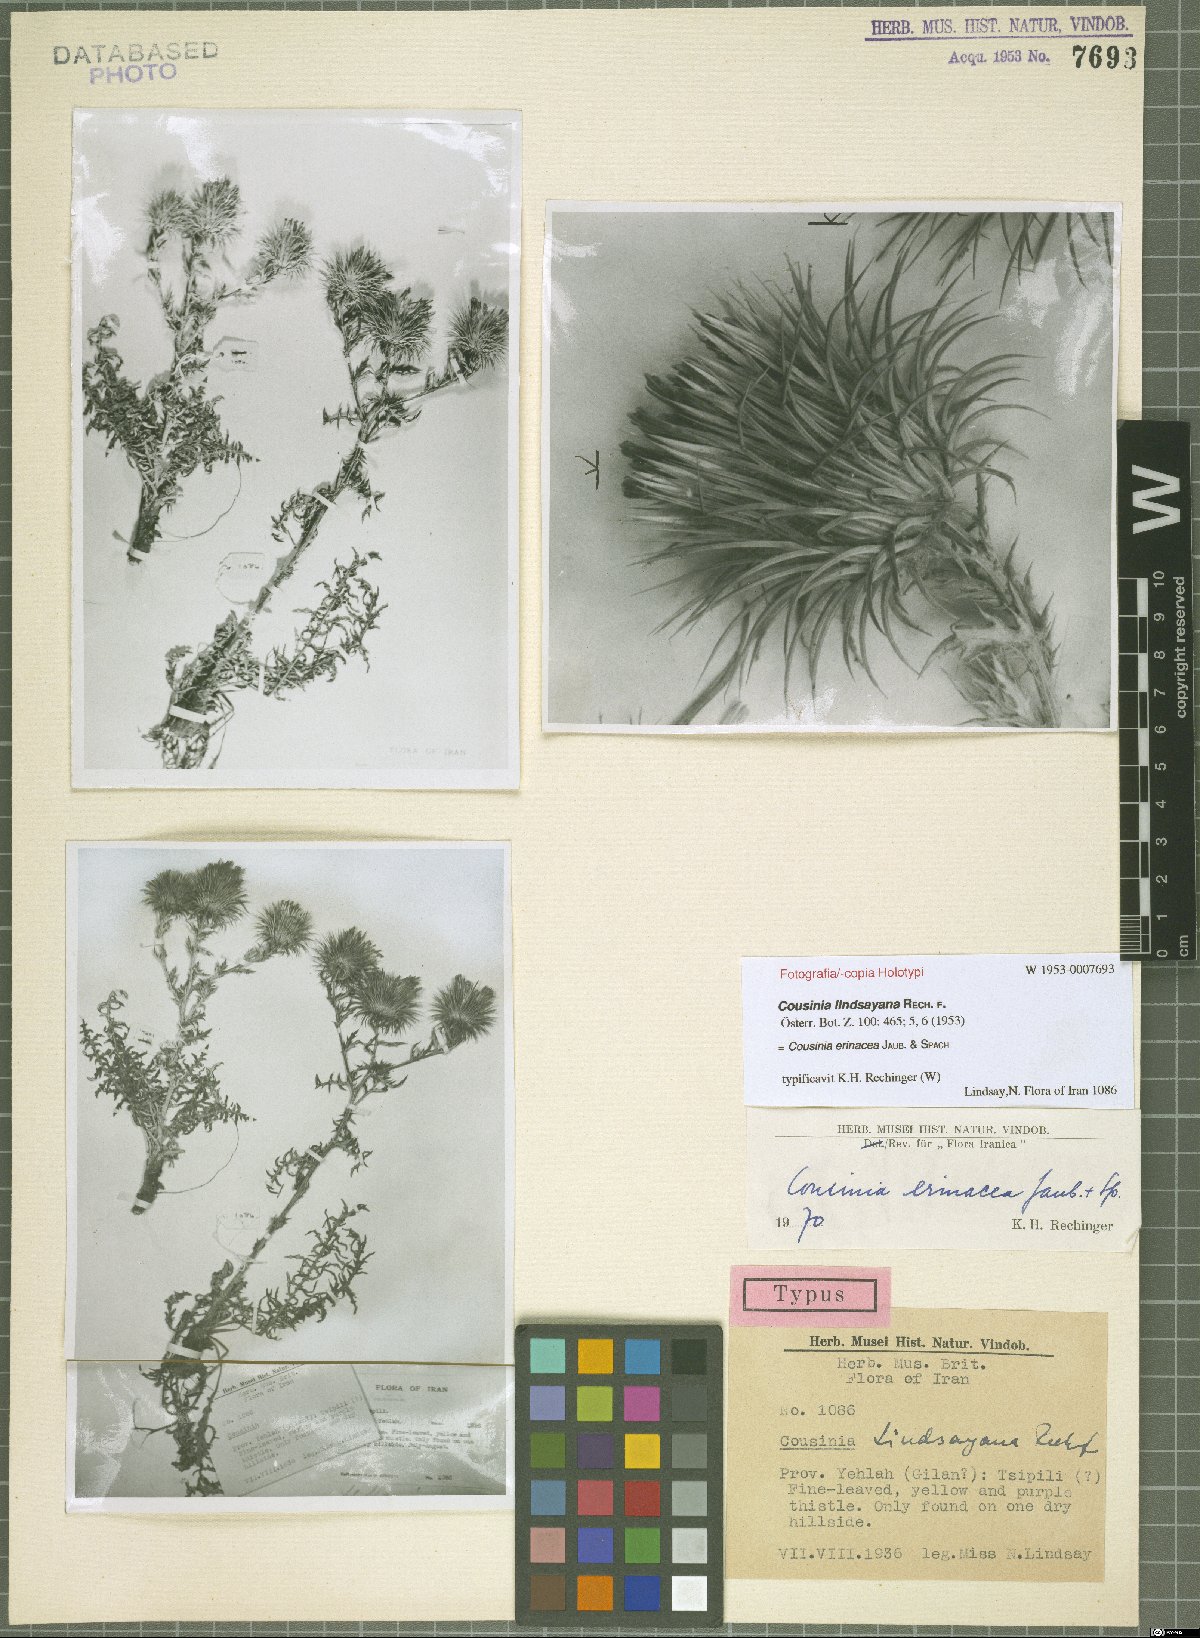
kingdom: Plantae
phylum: Tracheophyta
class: Magnoliopsida
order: Asterales
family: Asteraceae
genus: Cousinia
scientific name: Cousinia erinacea
